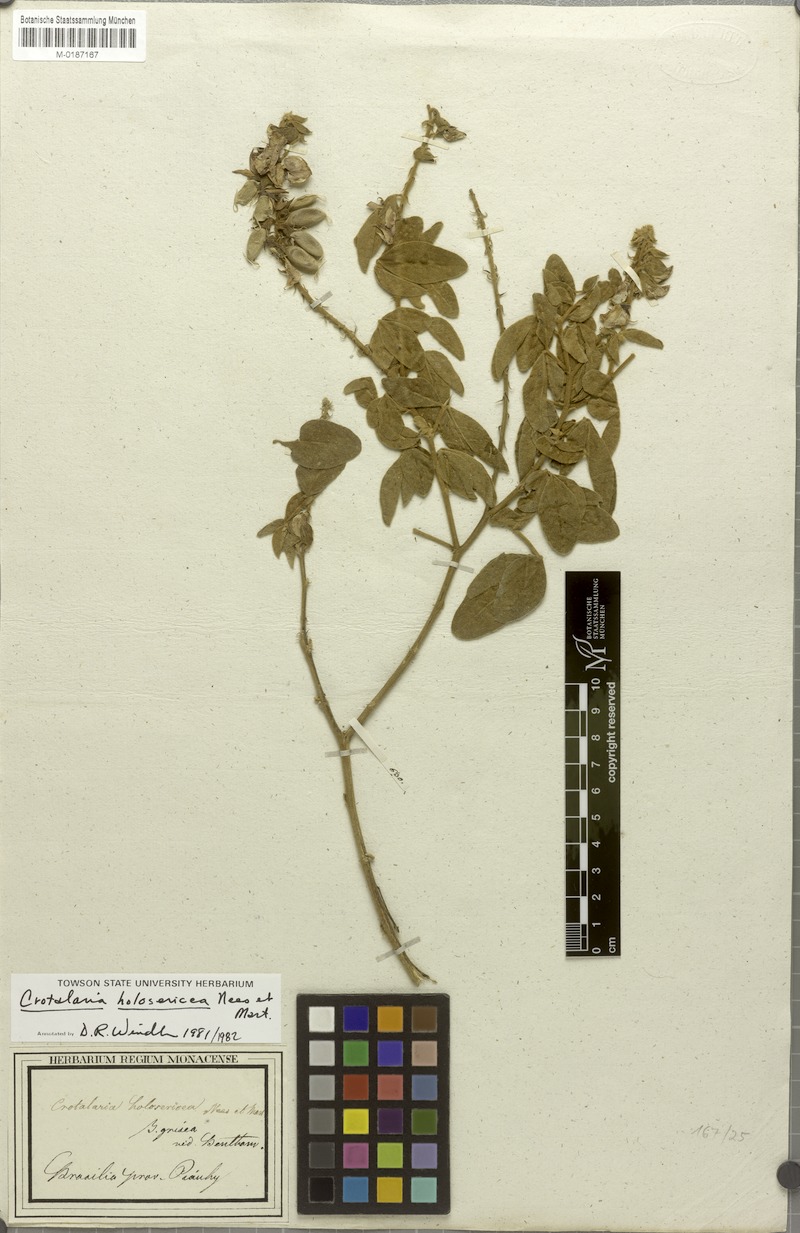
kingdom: Plantae
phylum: Tracheophyta
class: Magnoliopsida
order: Fabales
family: Fabaceae
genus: Crotalaria
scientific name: Crotalaria holosericea
